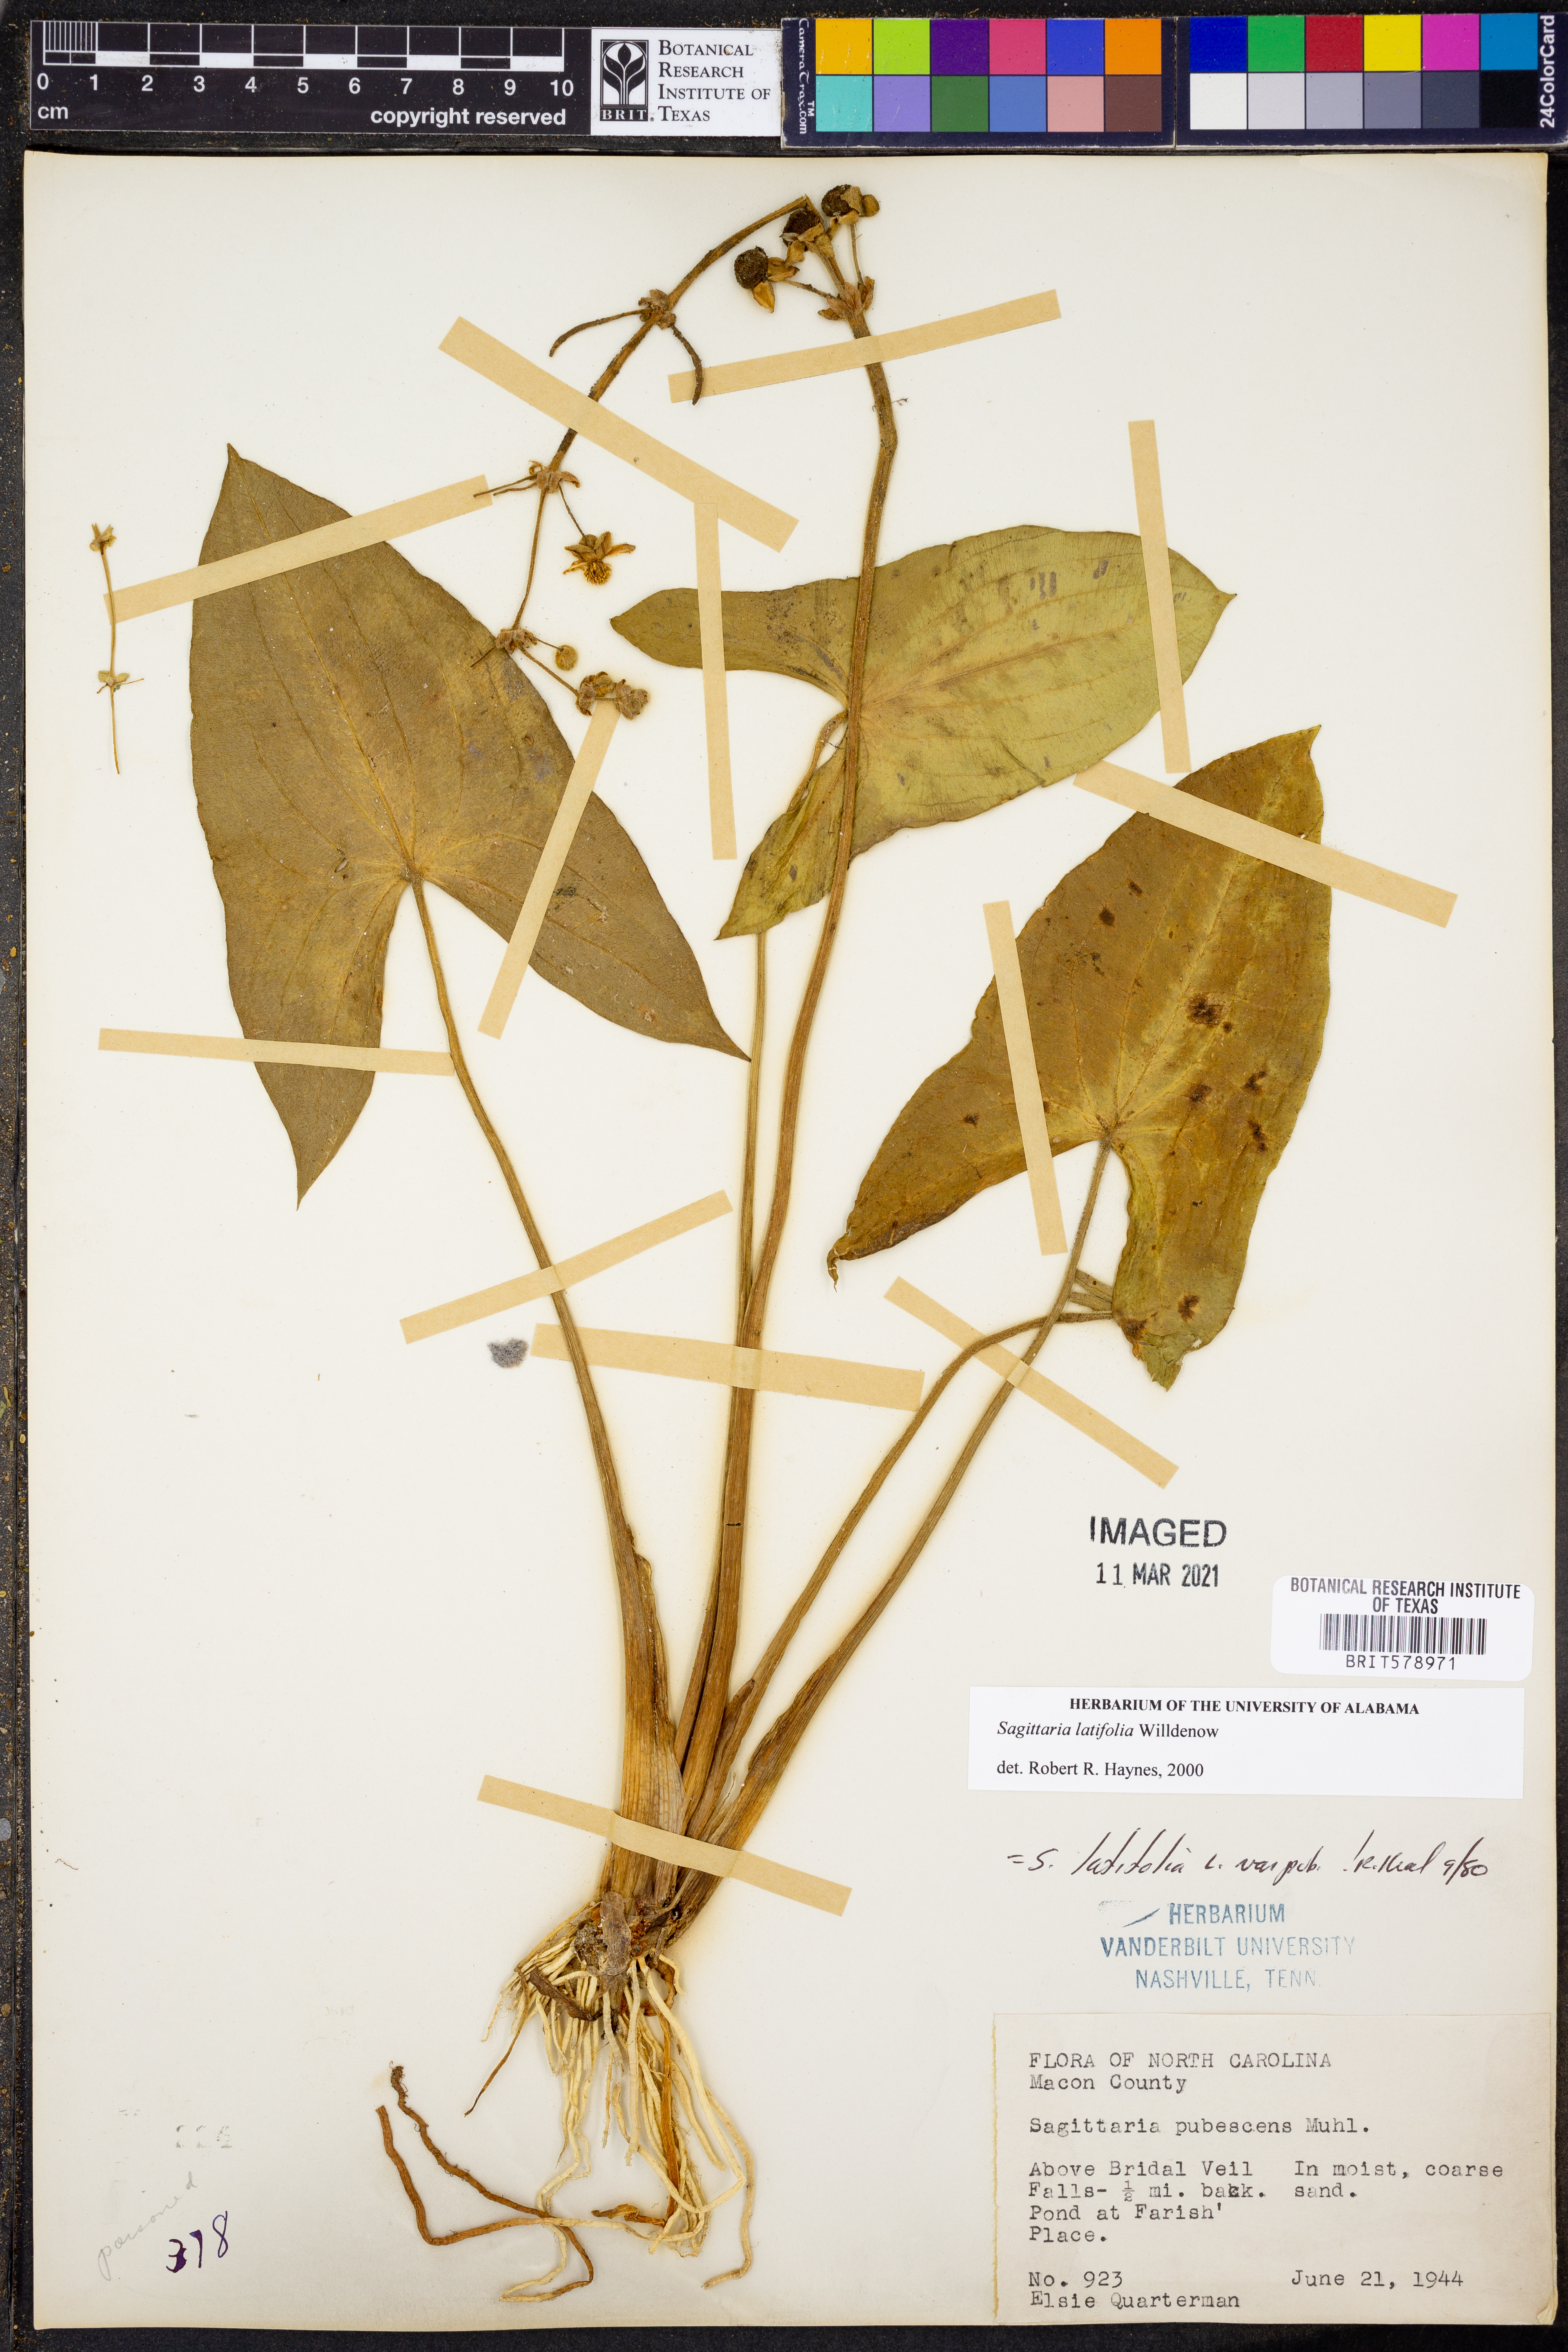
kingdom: Plantae
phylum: Tracheophyta
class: Liliopsida
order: Alismatales
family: Alismataceae
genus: Sagittaria
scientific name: Sagittaria latifolia
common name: Duck-potato
